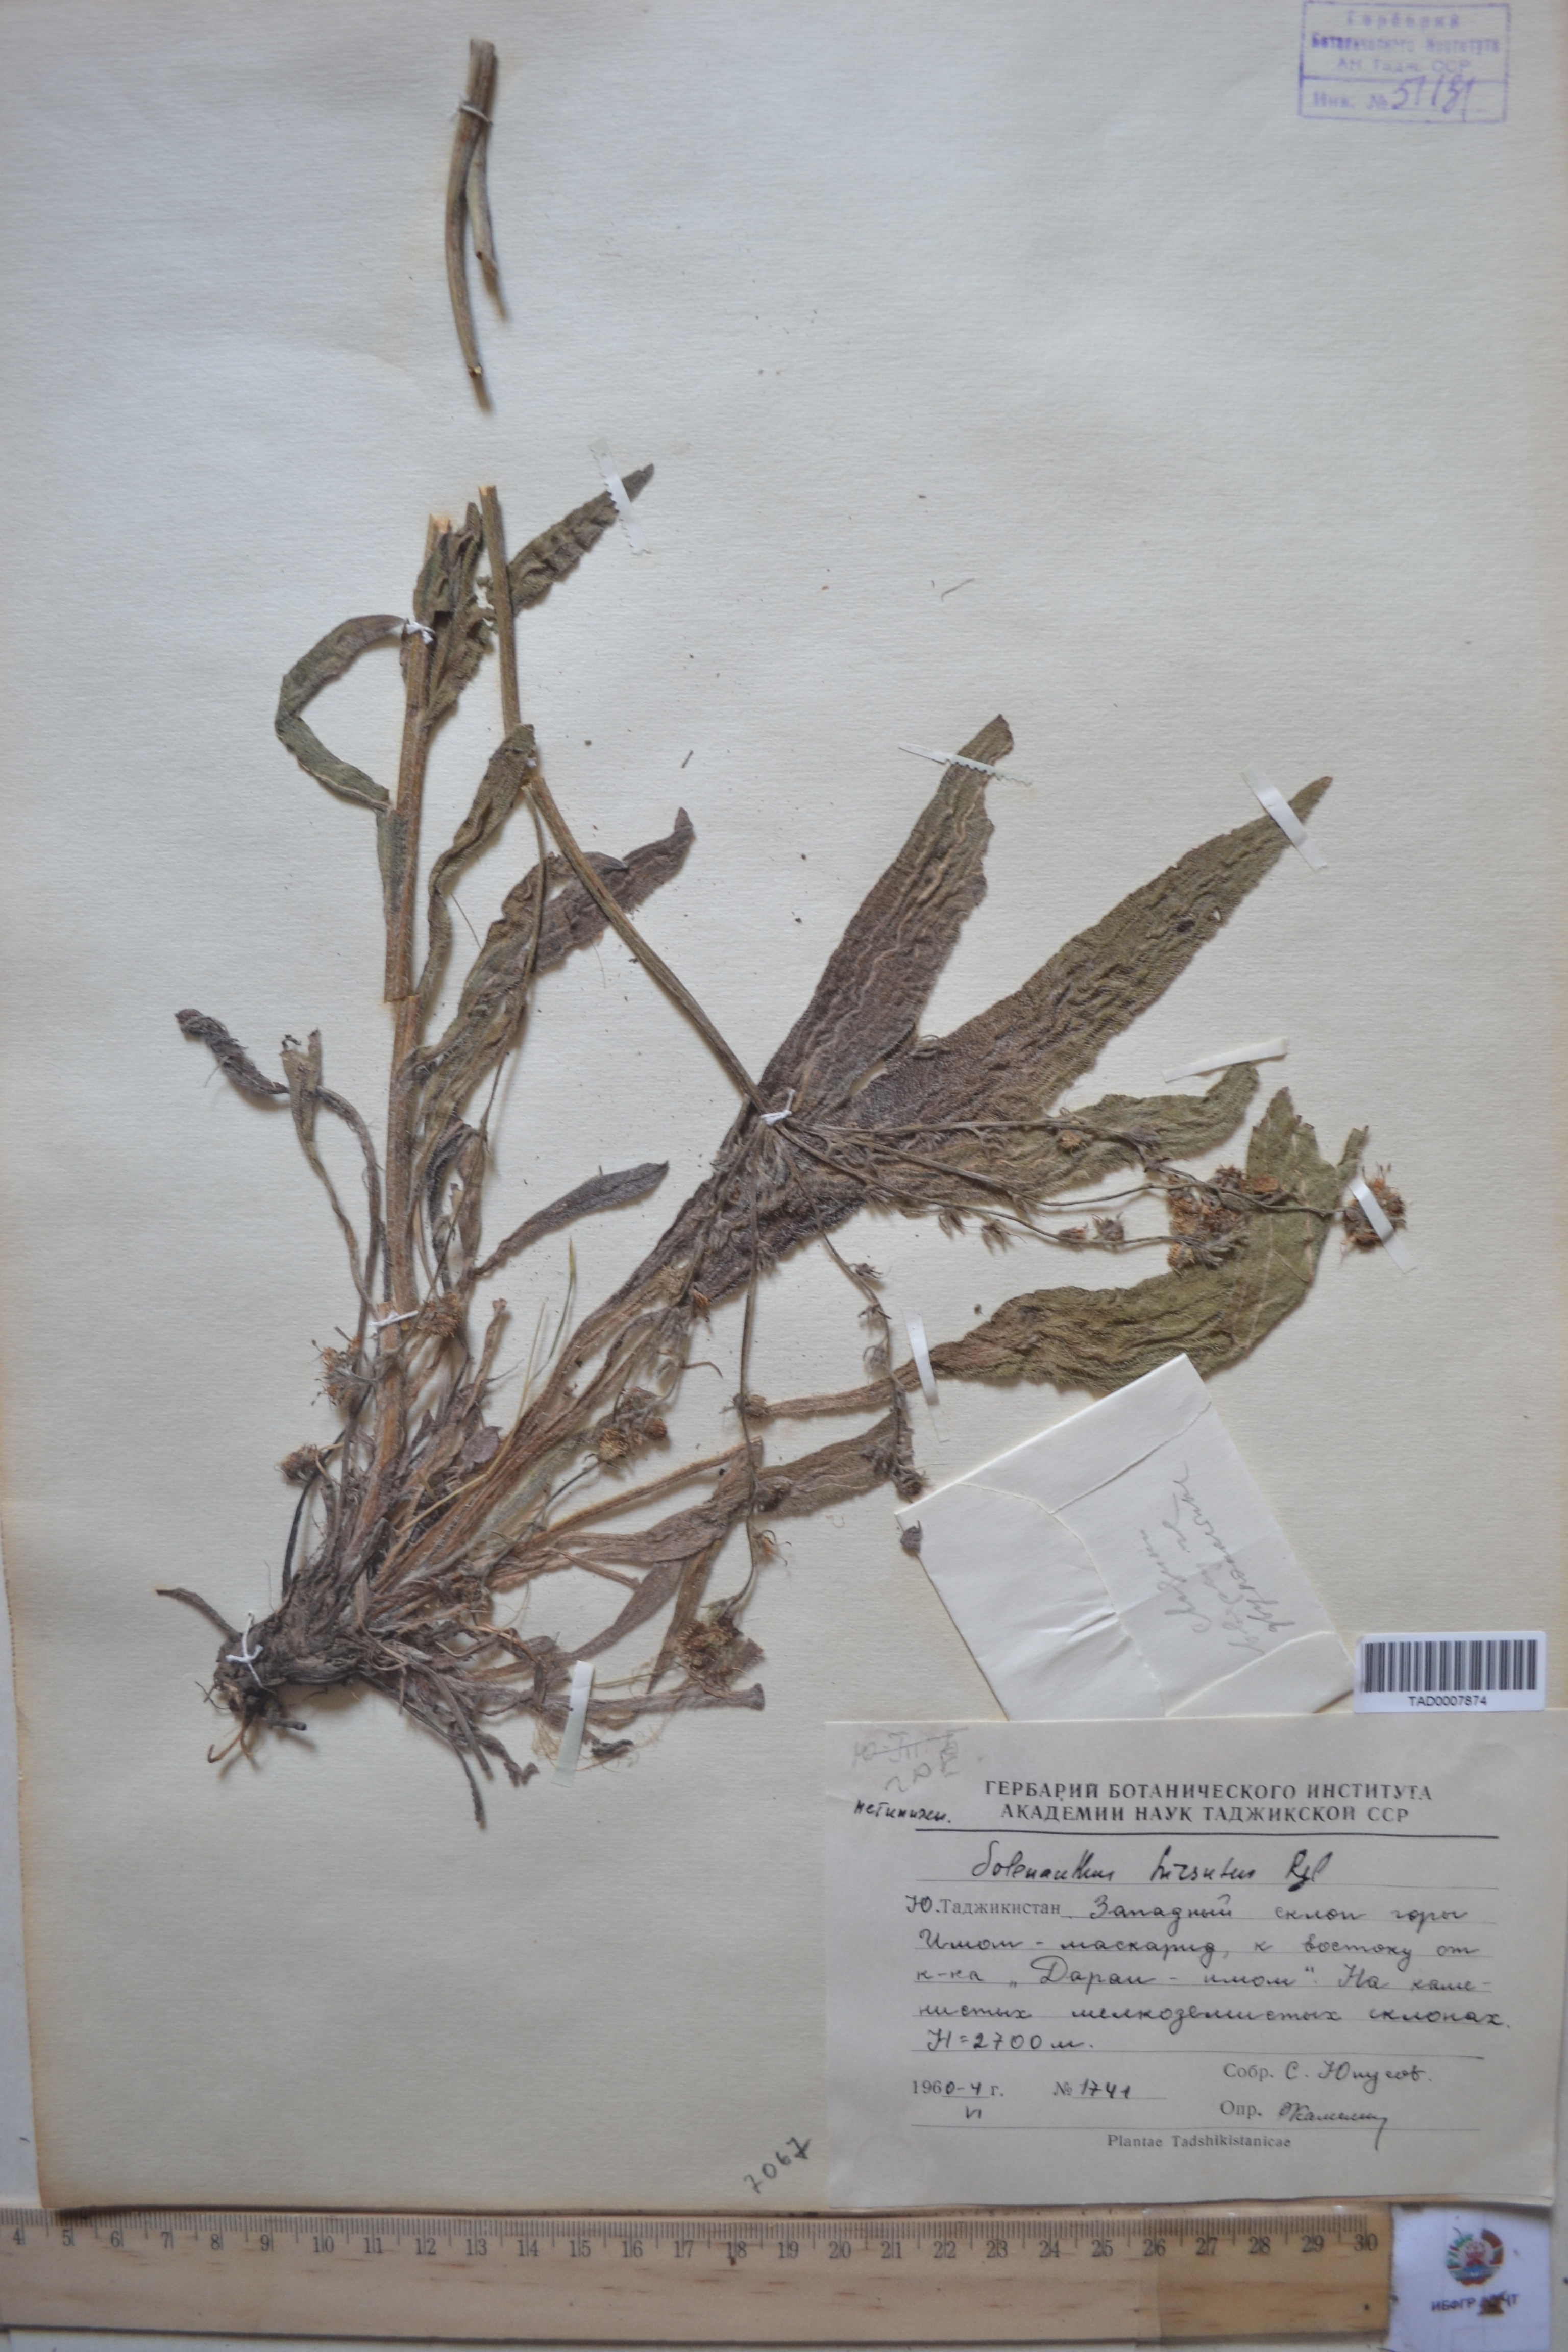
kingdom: Plantae
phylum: Tracheophyta
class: Magnoliopsida
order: Boraginales
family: Boraginaceae
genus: Solenanthus
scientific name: Solenanthus hirsutus
